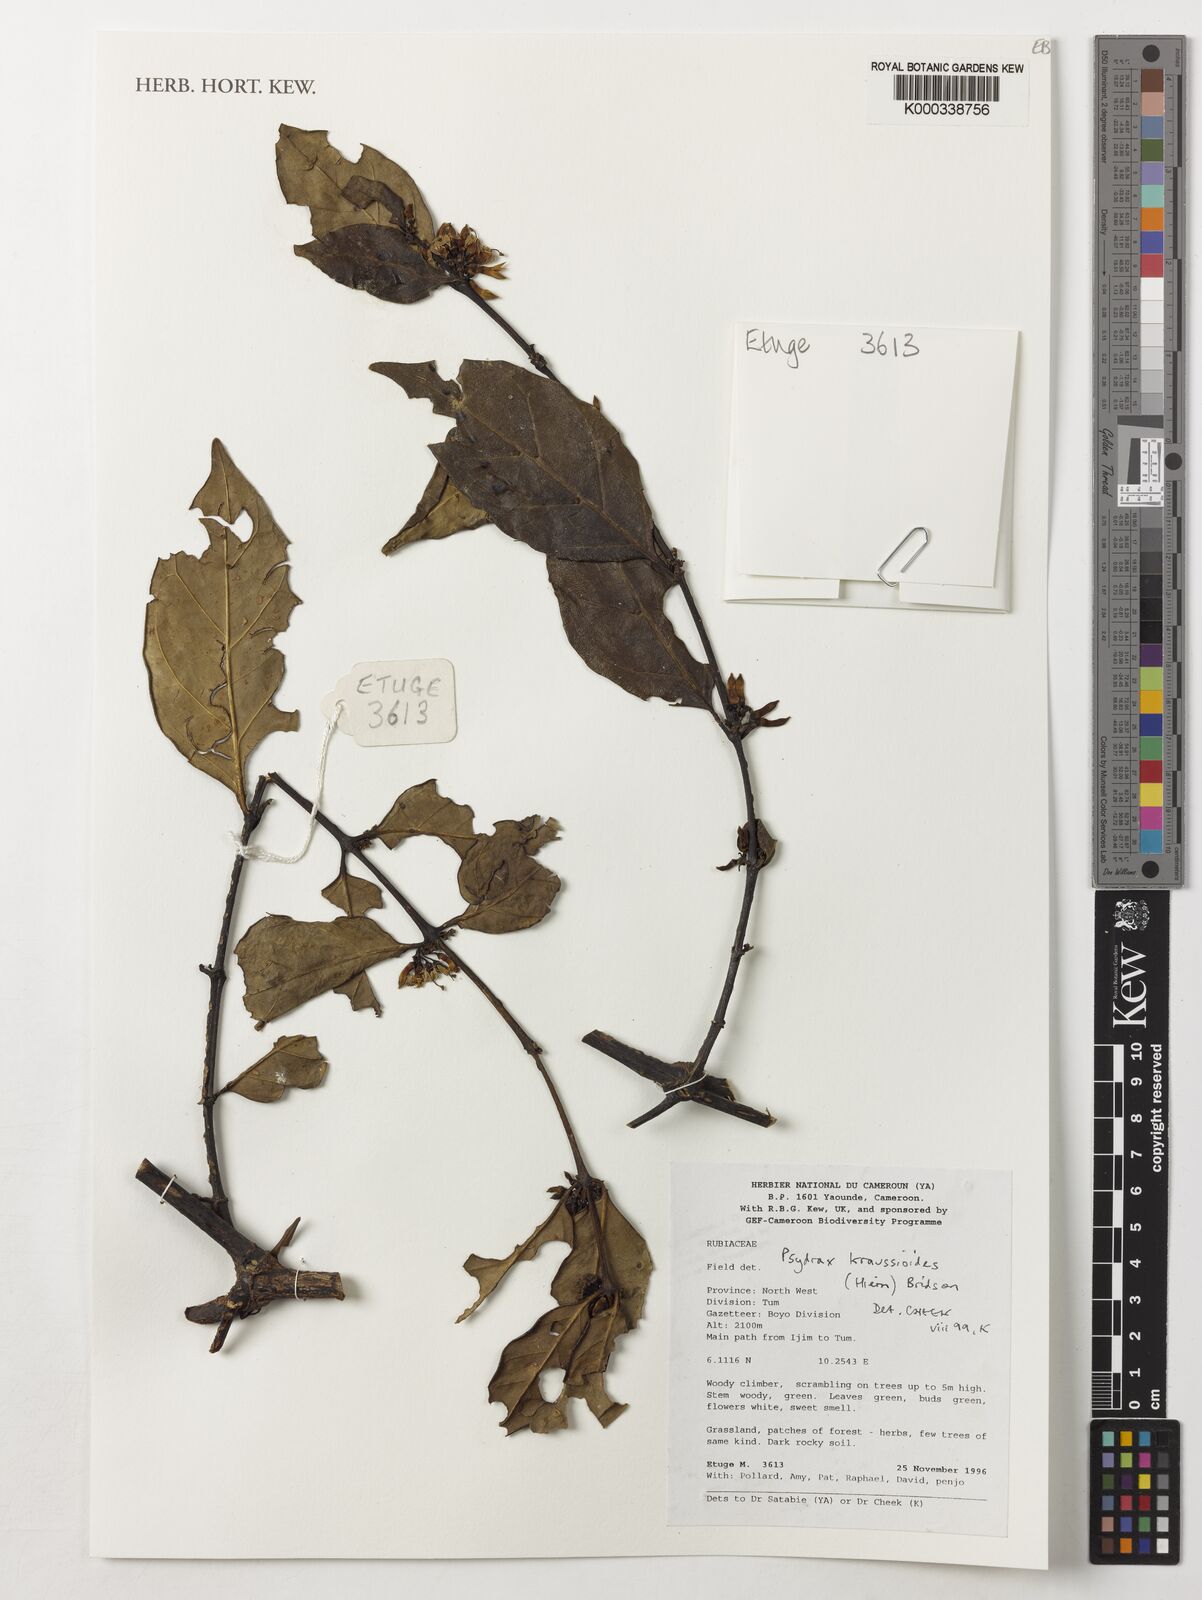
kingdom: Plantae
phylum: Tracheophyta
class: Magnoliopsida
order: Gentianales
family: Rubiaceae
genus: Psydrax
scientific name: Psydrax kraussioides
